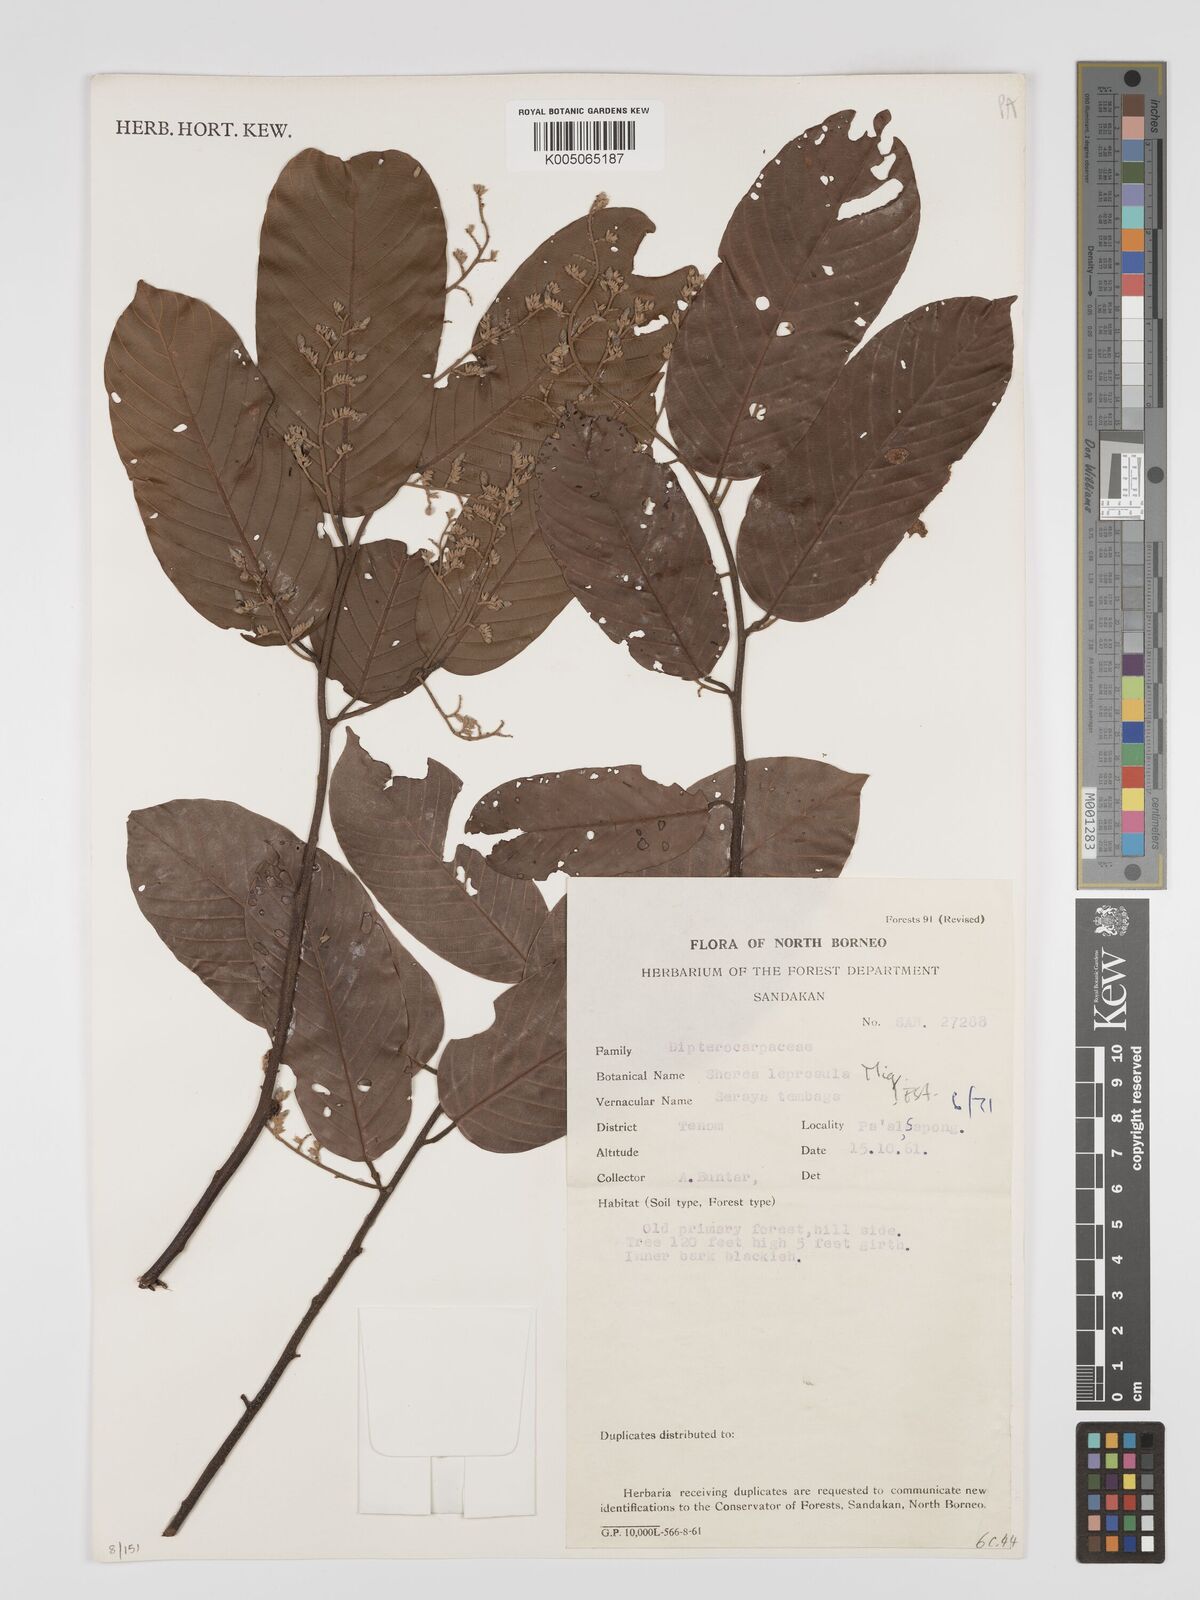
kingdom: Plantae
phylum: Tracheophyta
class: Magnoliopsida
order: Malvales
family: Dipterocarpaceae
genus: Shorea
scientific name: Shorea leprosula
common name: Light red meranti
